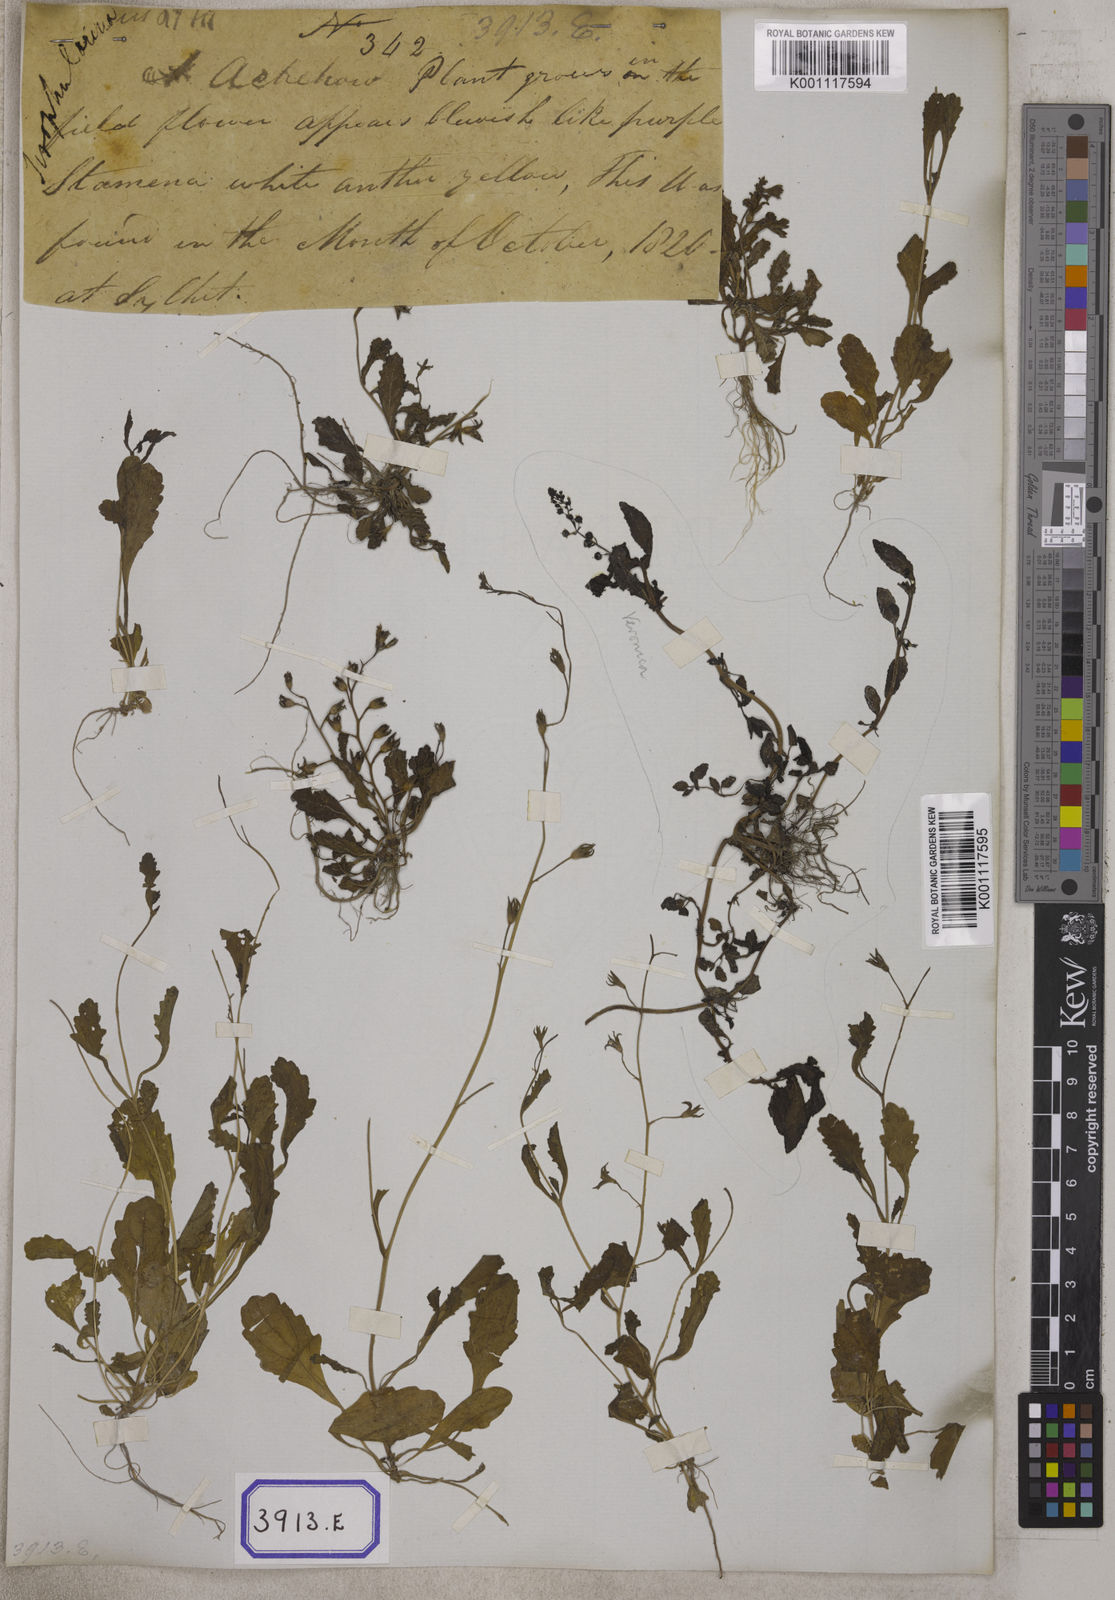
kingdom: Plantae
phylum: Tracheophyta
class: Magnoliopsida
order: Lamiales
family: Mazaceae
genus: Mazus
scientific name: Mazus pumilus
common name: Japanese mazus
